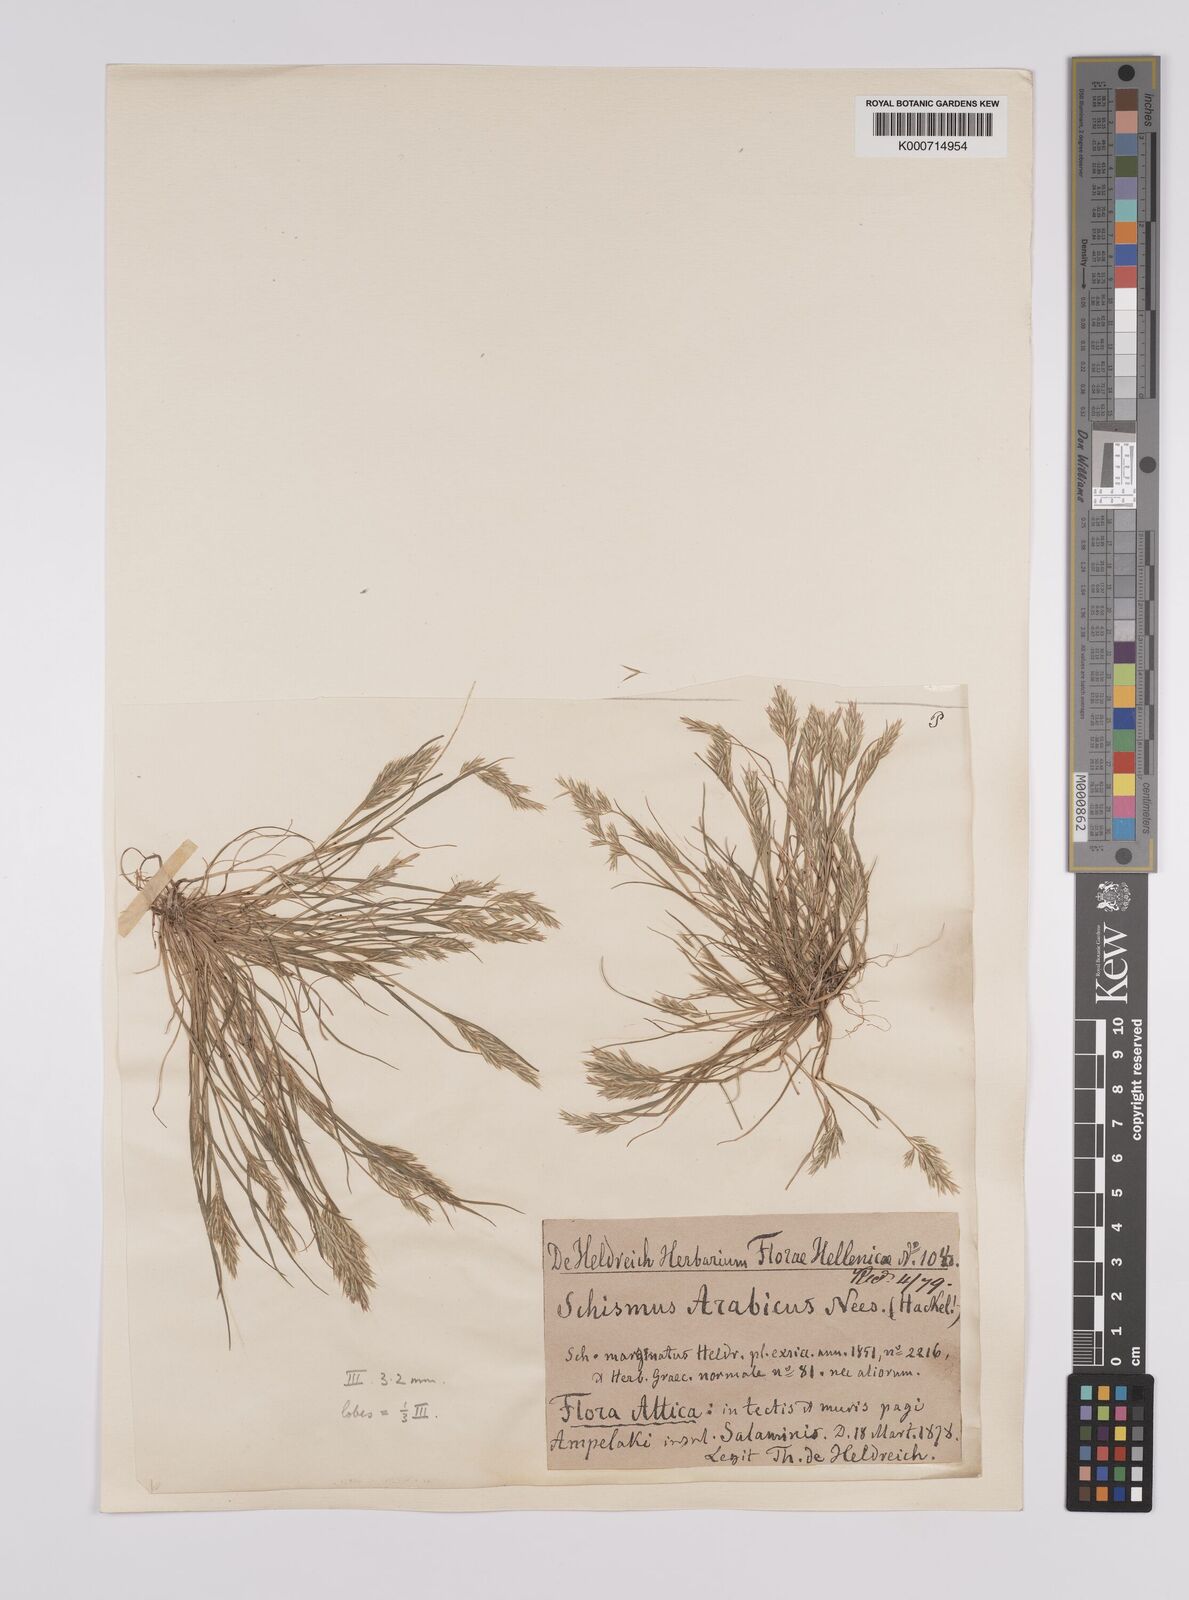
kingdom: Plantae
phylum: Tracheophyta
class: Liliopsida
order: Poales
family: Poaceae
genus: Schismus
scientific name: Schismus arabicus
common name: Arabian schismus
